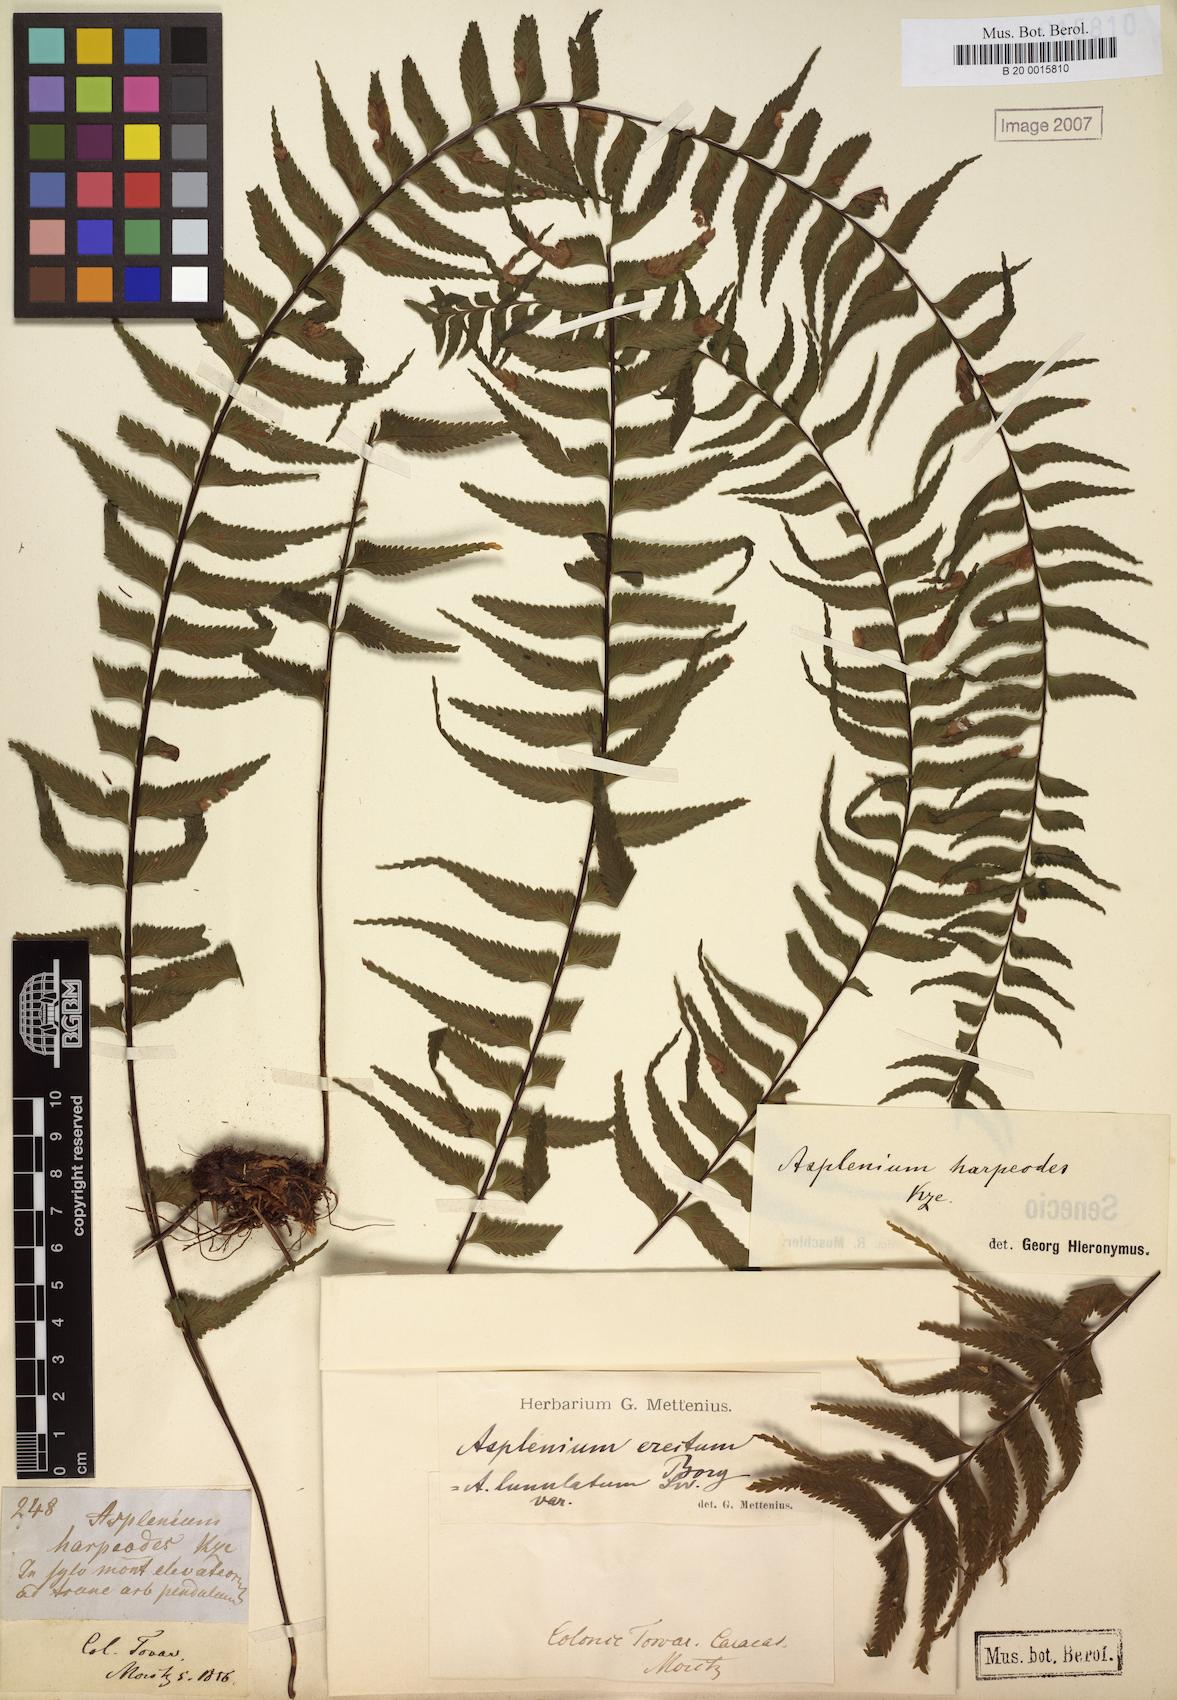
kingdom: Plantae
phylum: Tracheophyta
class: Polypodiopsida
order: Polypodiales
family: Aspleniaceae
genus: Asplenium
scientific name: Asplenium harpeodes
